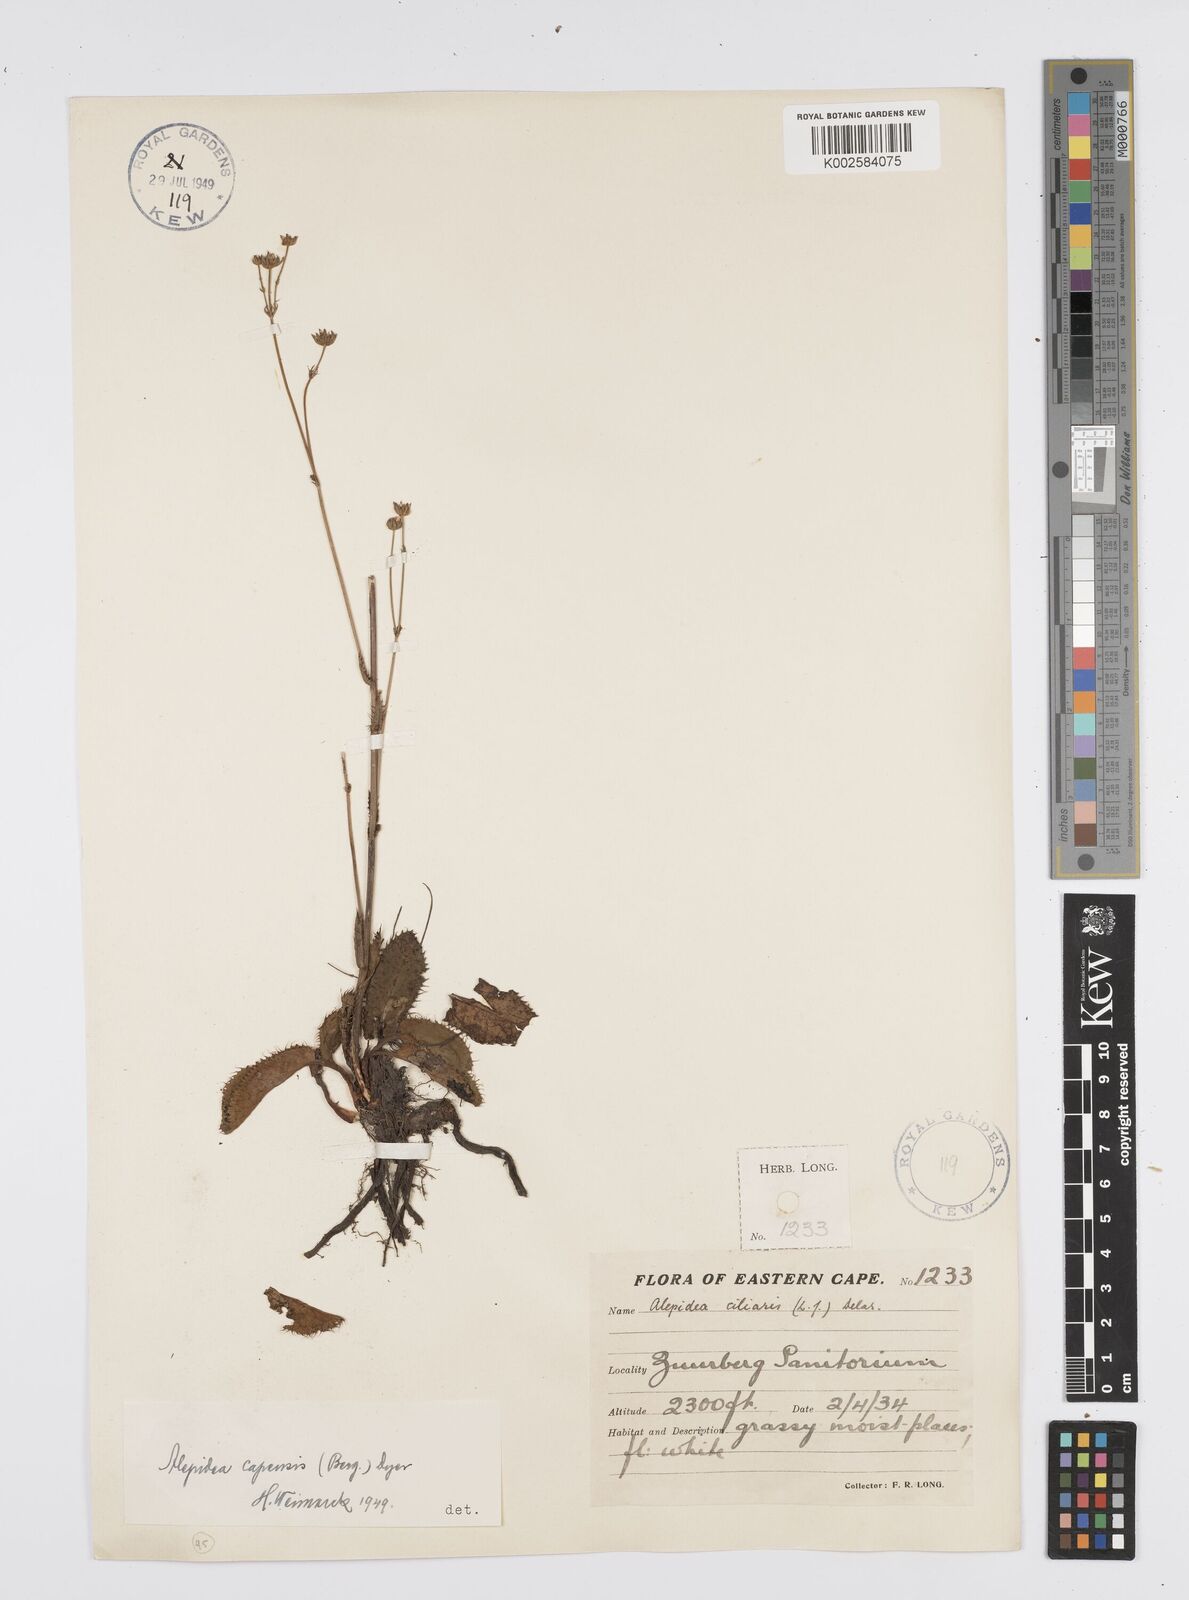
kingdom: Plantae
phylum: Tracheophyta
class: Magnoliopsida
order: Apiales
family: Apiaceae
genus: Alepidea
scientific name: Alepidea capensis
